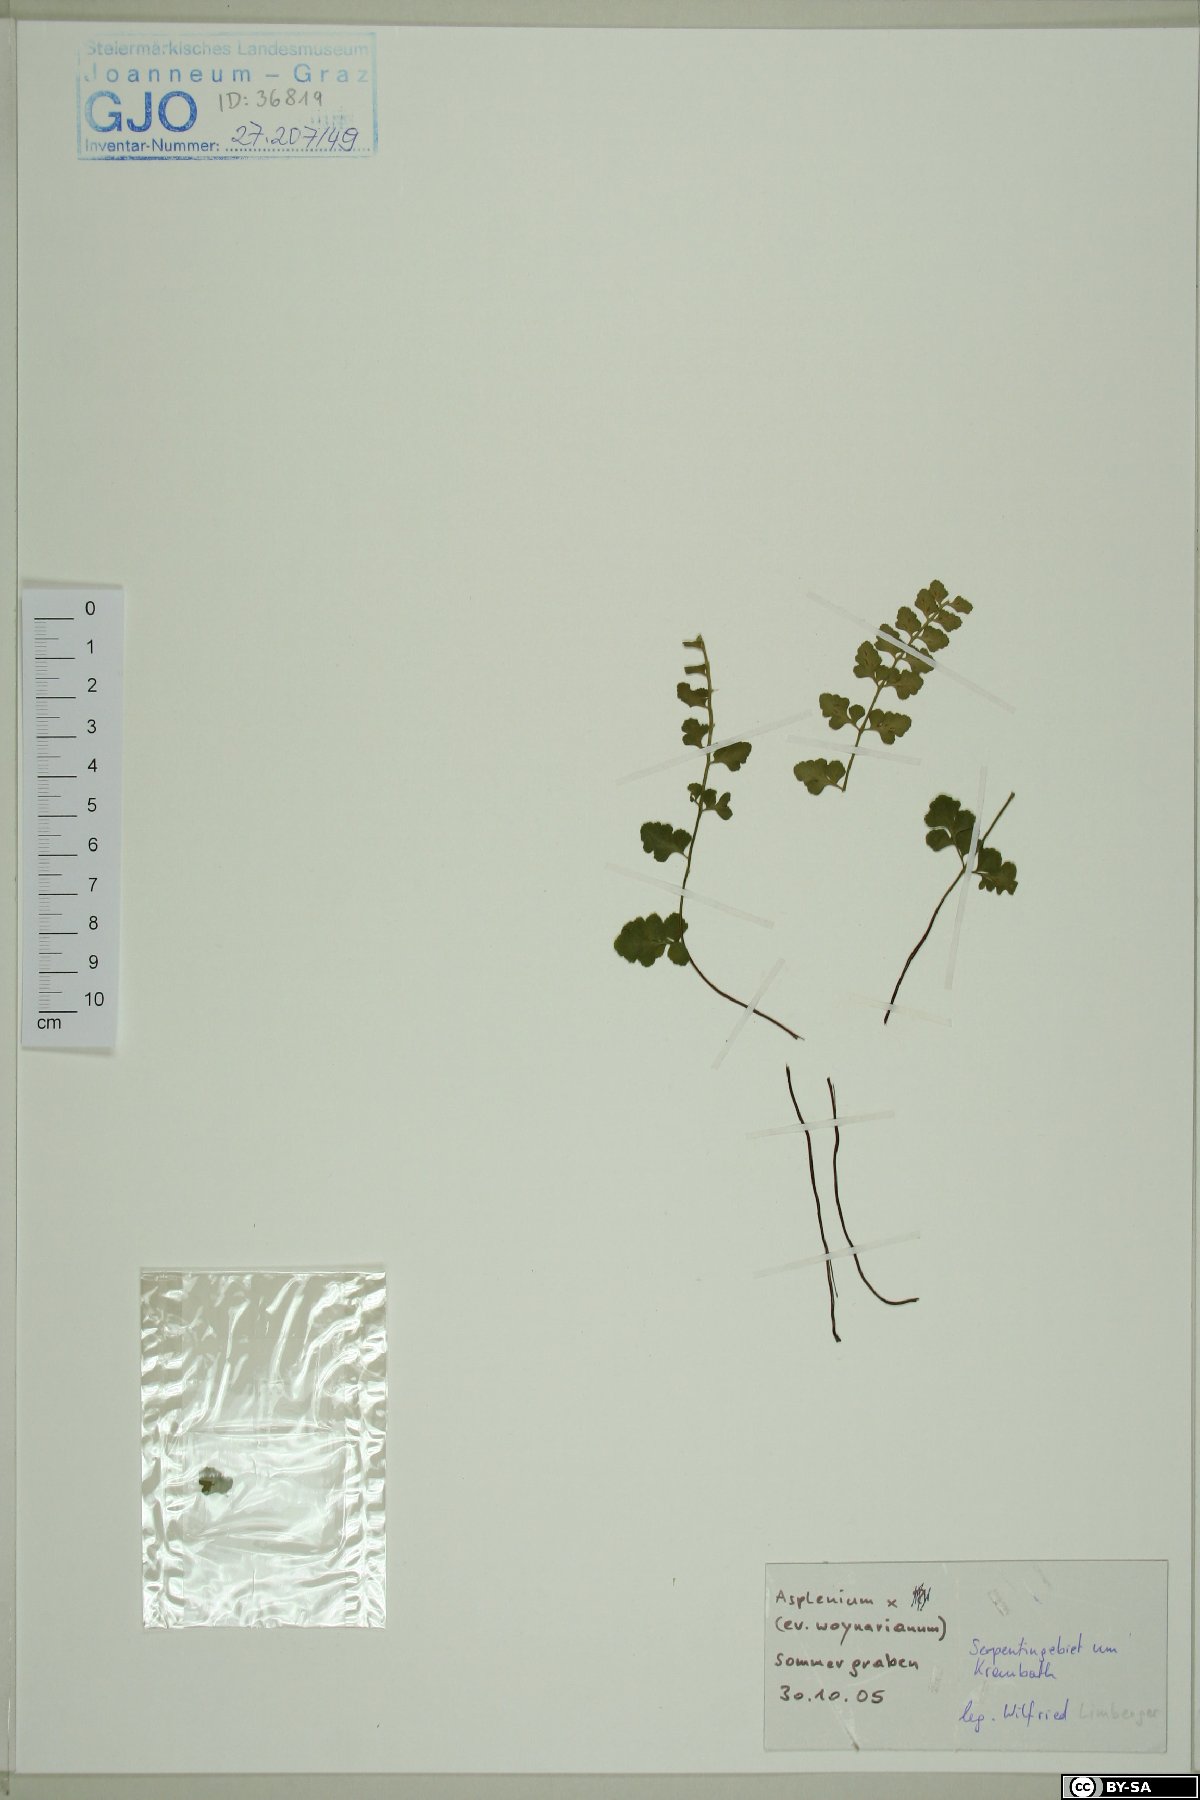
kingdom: Plantae
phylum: Tracheophyta
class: Polypodiopsida
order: Polypodiales
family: Aspleniaceae
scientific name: Aspleniaceae
